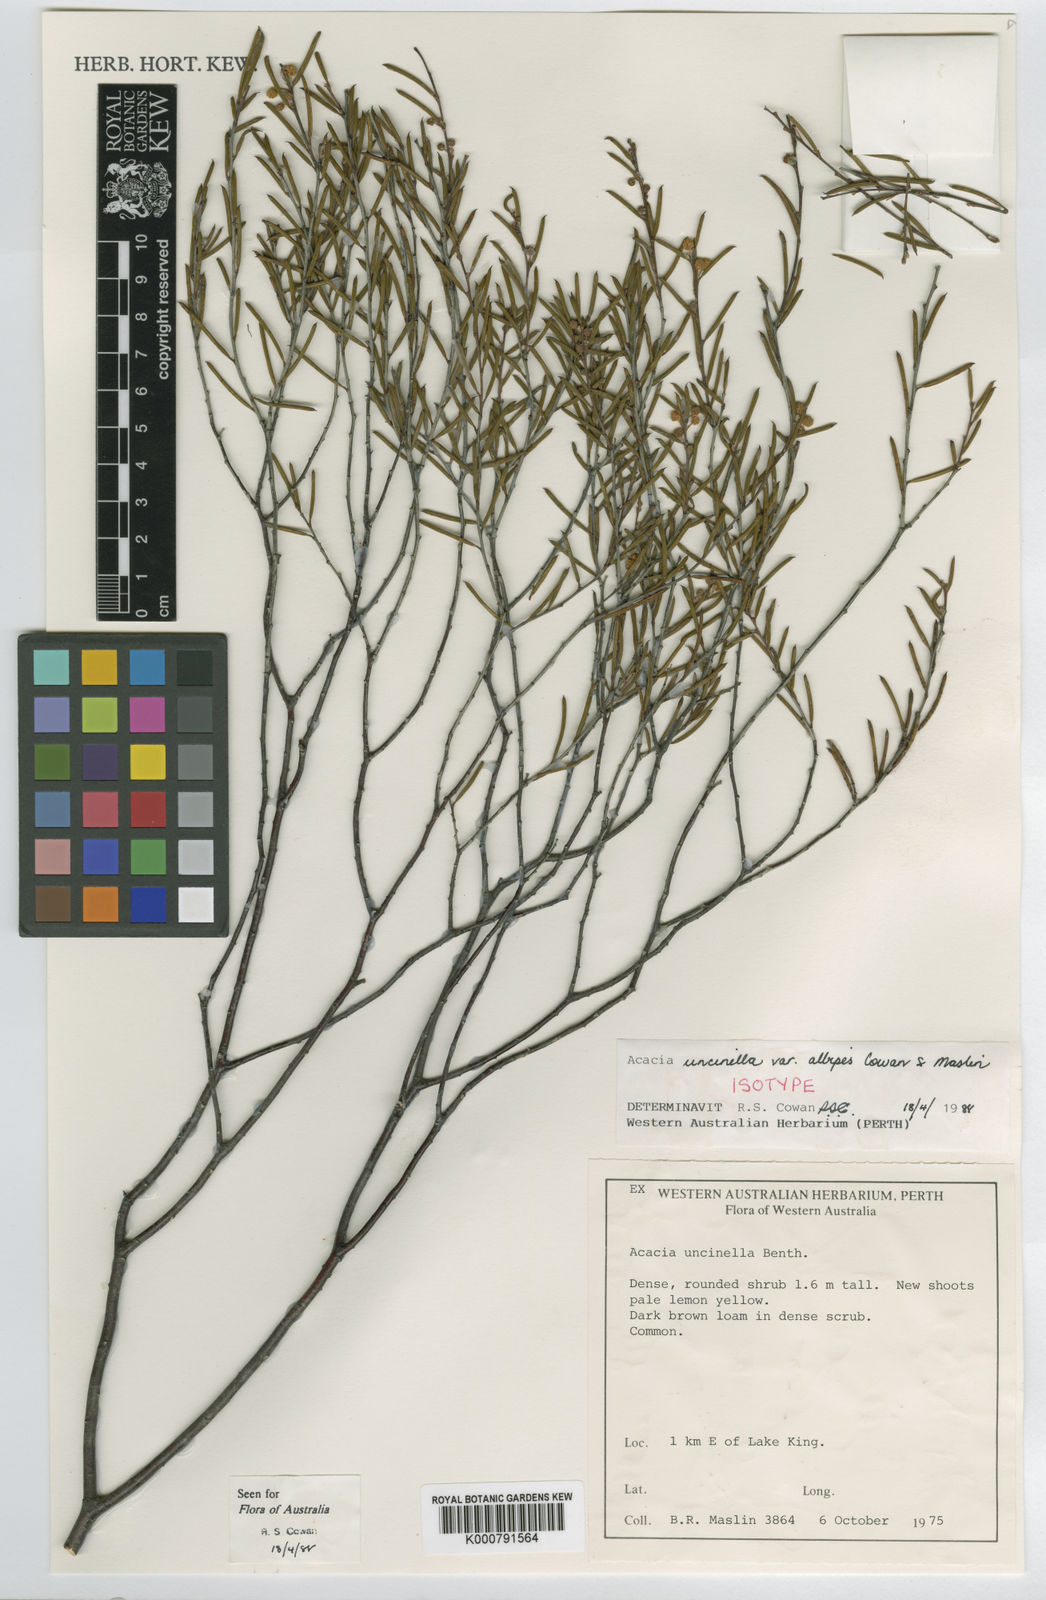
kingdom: Plantae
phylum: Tracheophyta
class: Magnoliopsida
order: Fabales
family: Fabaceae
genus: Acacia
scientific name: Acacia uncinella
